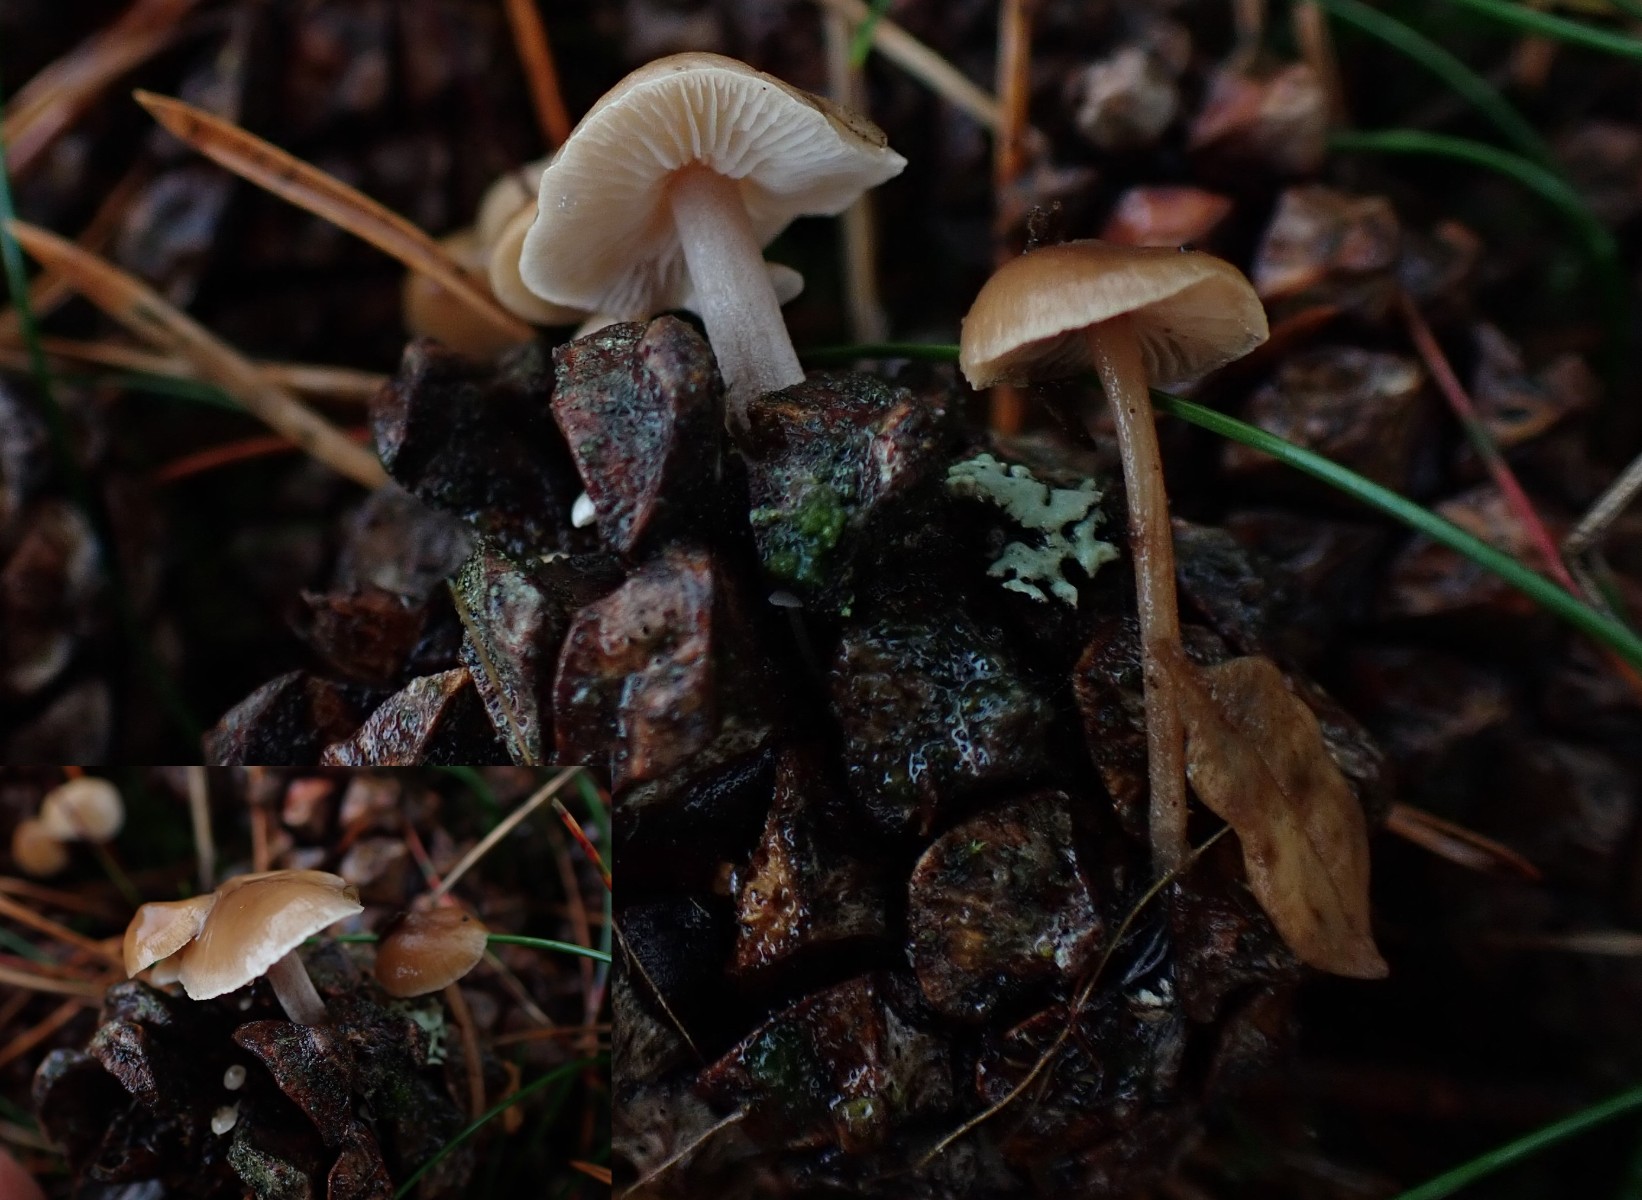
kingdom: Fungi
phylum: Basidiomycota
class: Agaricomycetes
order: Agaricales
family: Marasmiaceae
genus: Baeospora
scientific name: Baeospora myosura
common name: koglebruskhat
